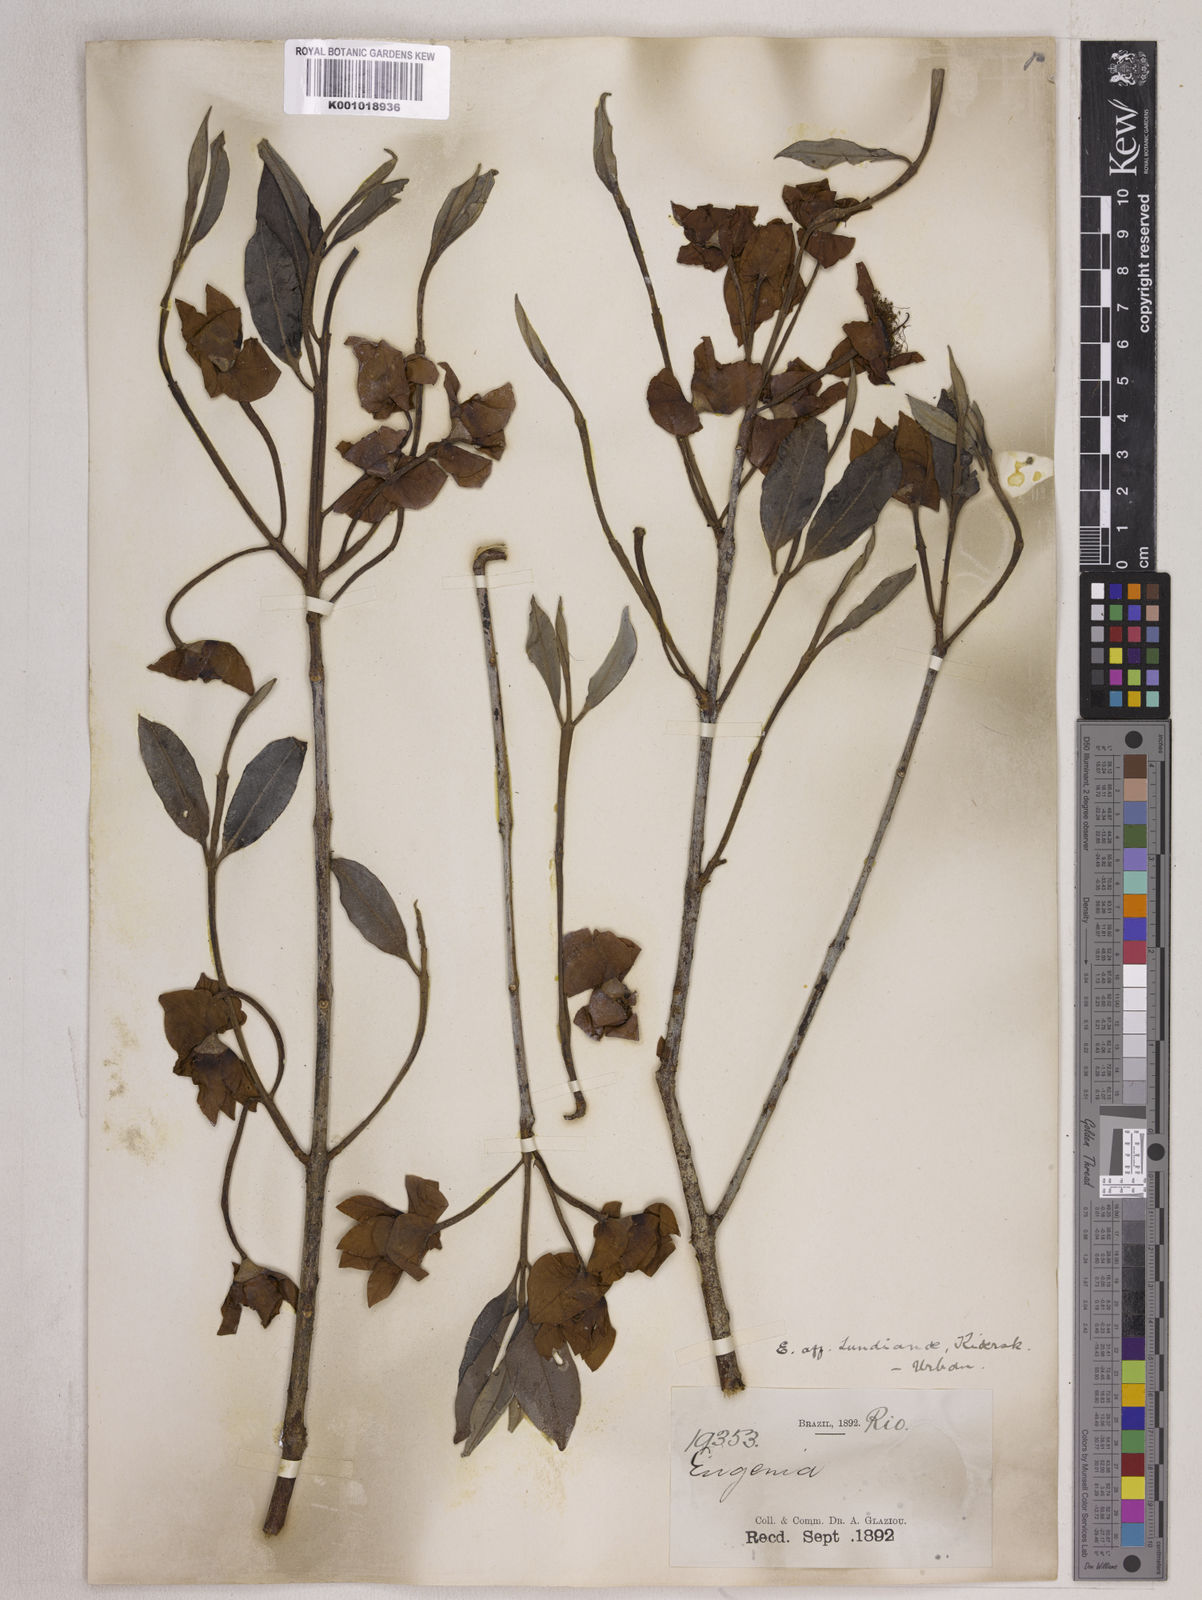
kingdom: Plantae
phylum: Tracheophyta
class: Magnoliopsida
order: Myrtales
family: Myrtaceae
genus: Eugenia
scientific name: Eugenia calycina
